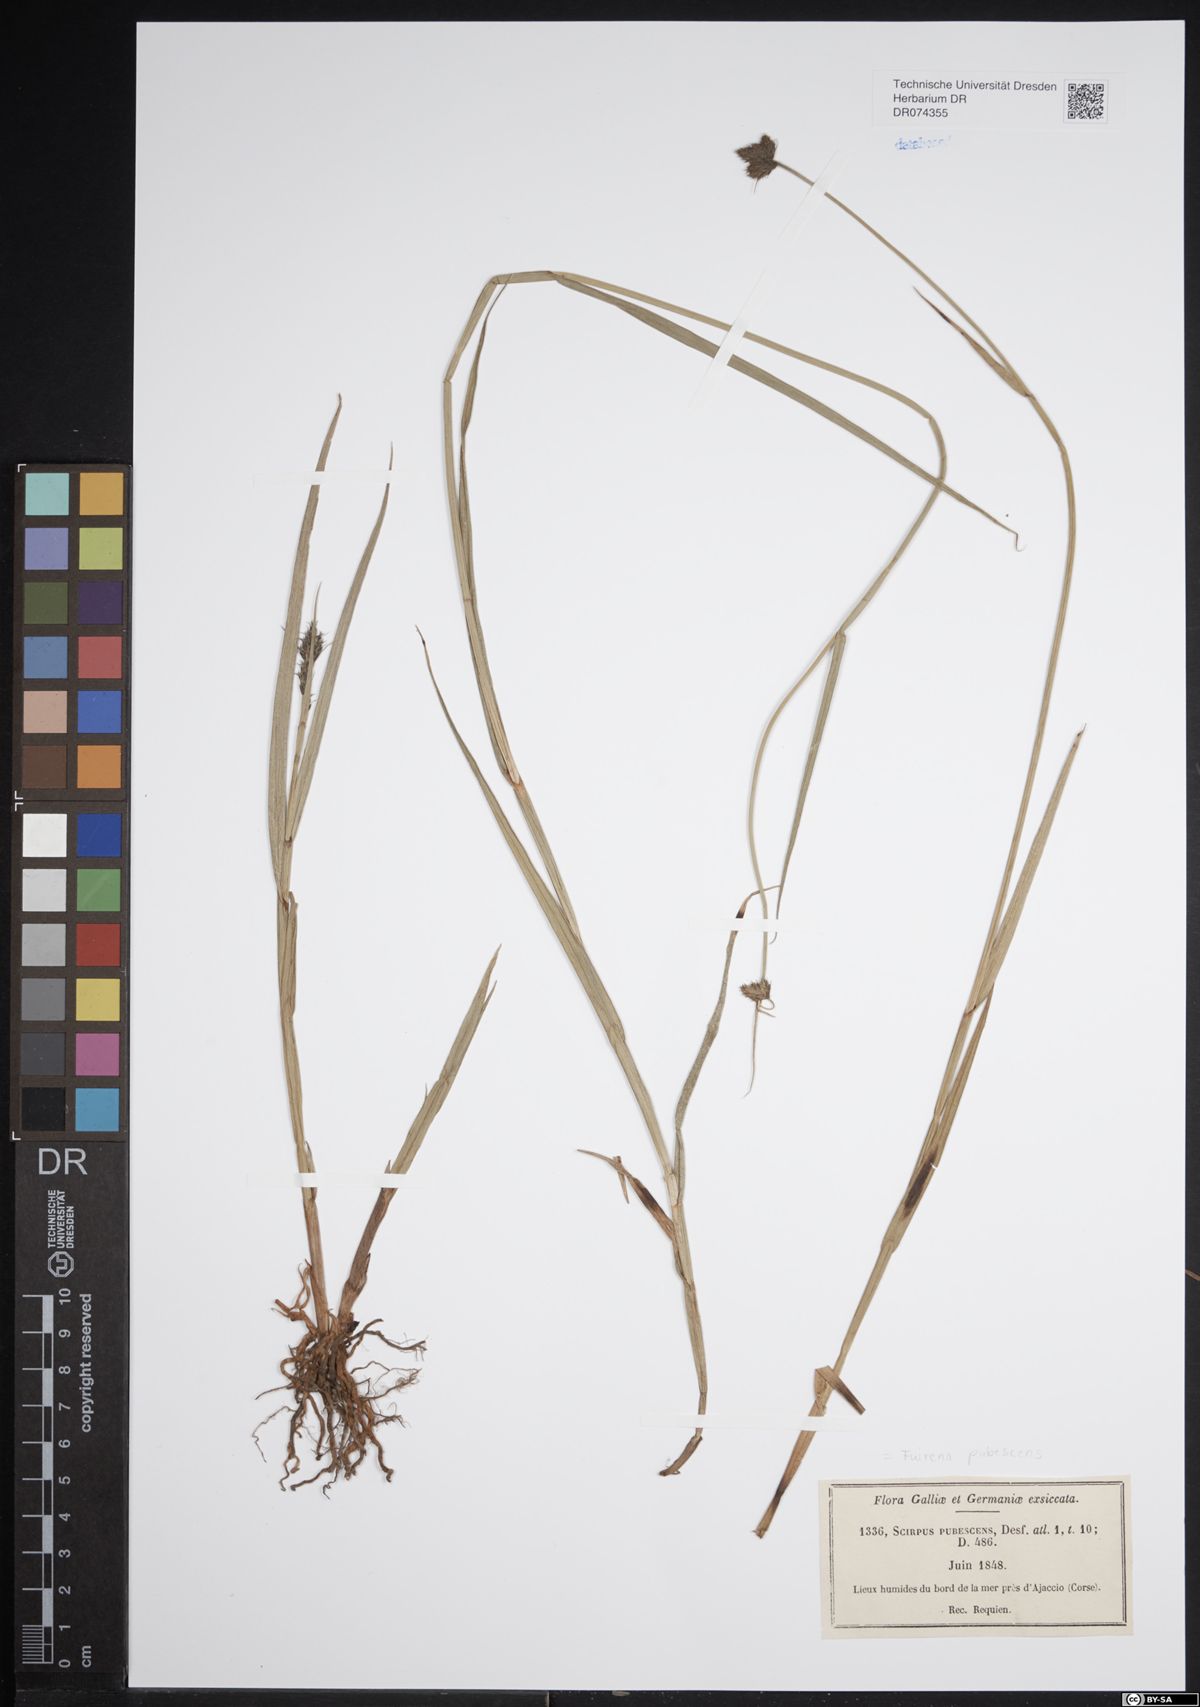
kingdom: Plantae
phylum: Tracheophyta
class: Liliopsida
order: Poales
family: Cyperaceae
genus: Fuirena
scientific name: Fuirena pubescens
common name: Hairy sedge
